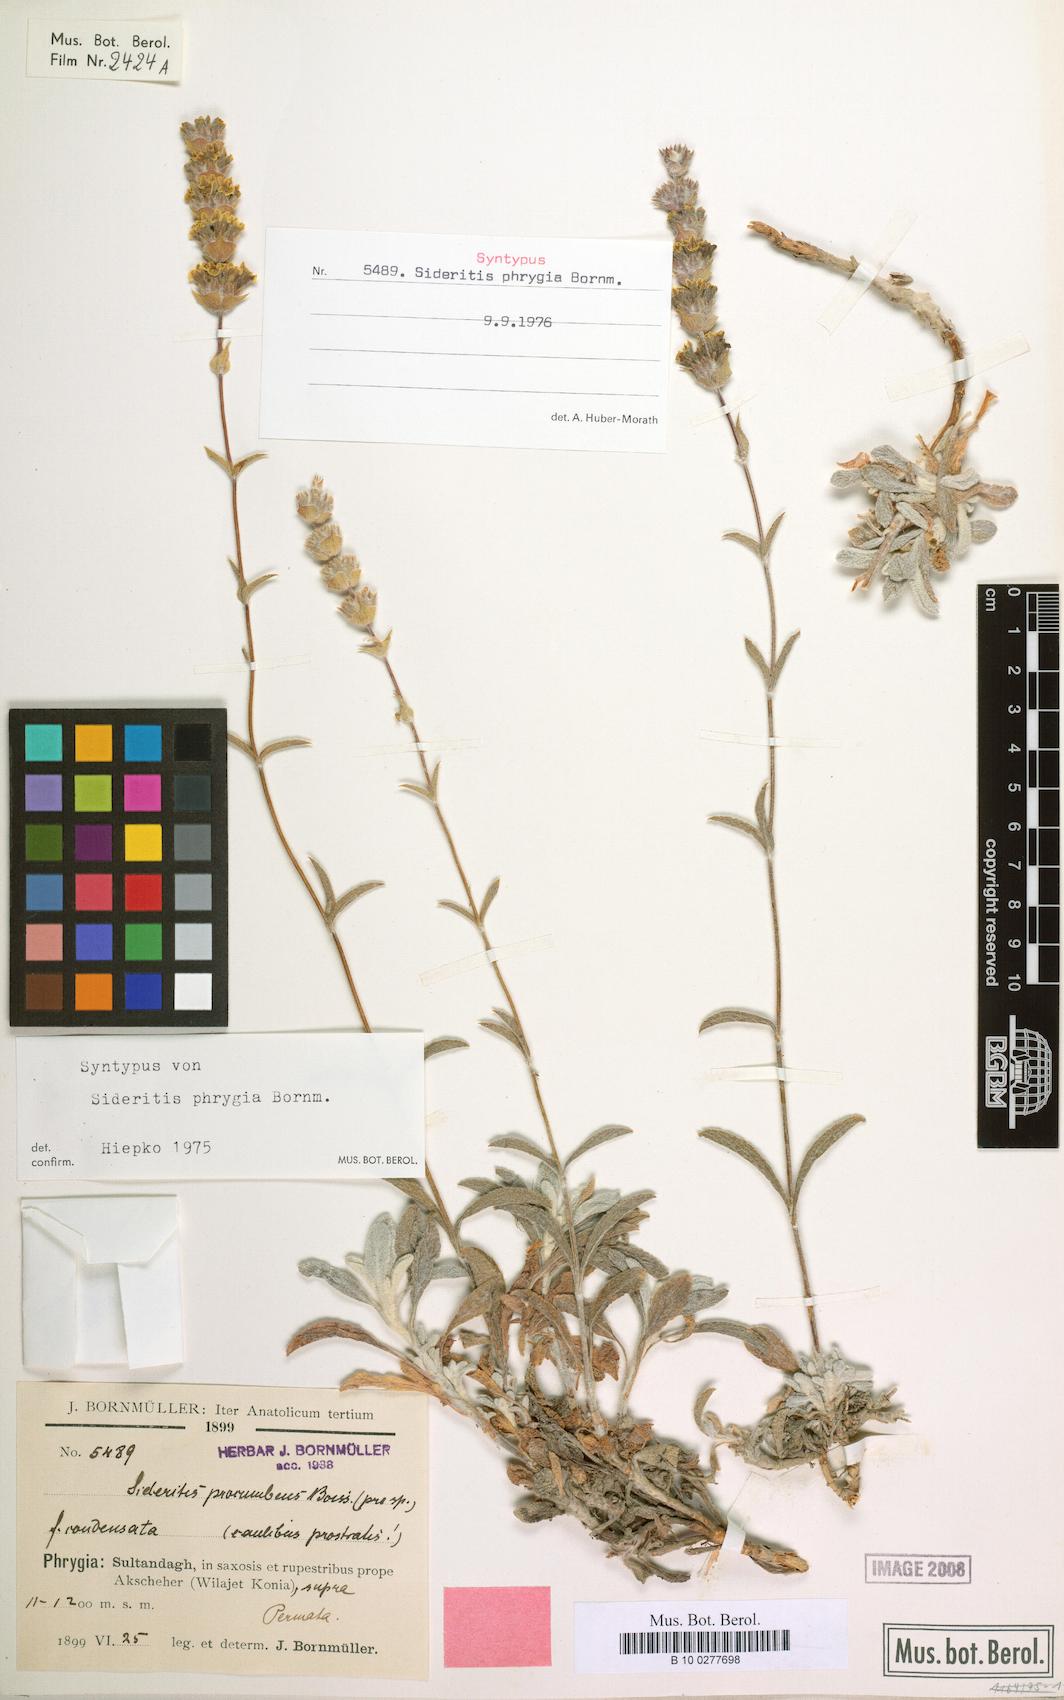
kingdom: Plantae
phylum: Tracheophyta
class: Magnoliopsida
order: Lamiales
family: Lamiaceae
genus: Sideritis
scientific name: Sideritis phrygia
